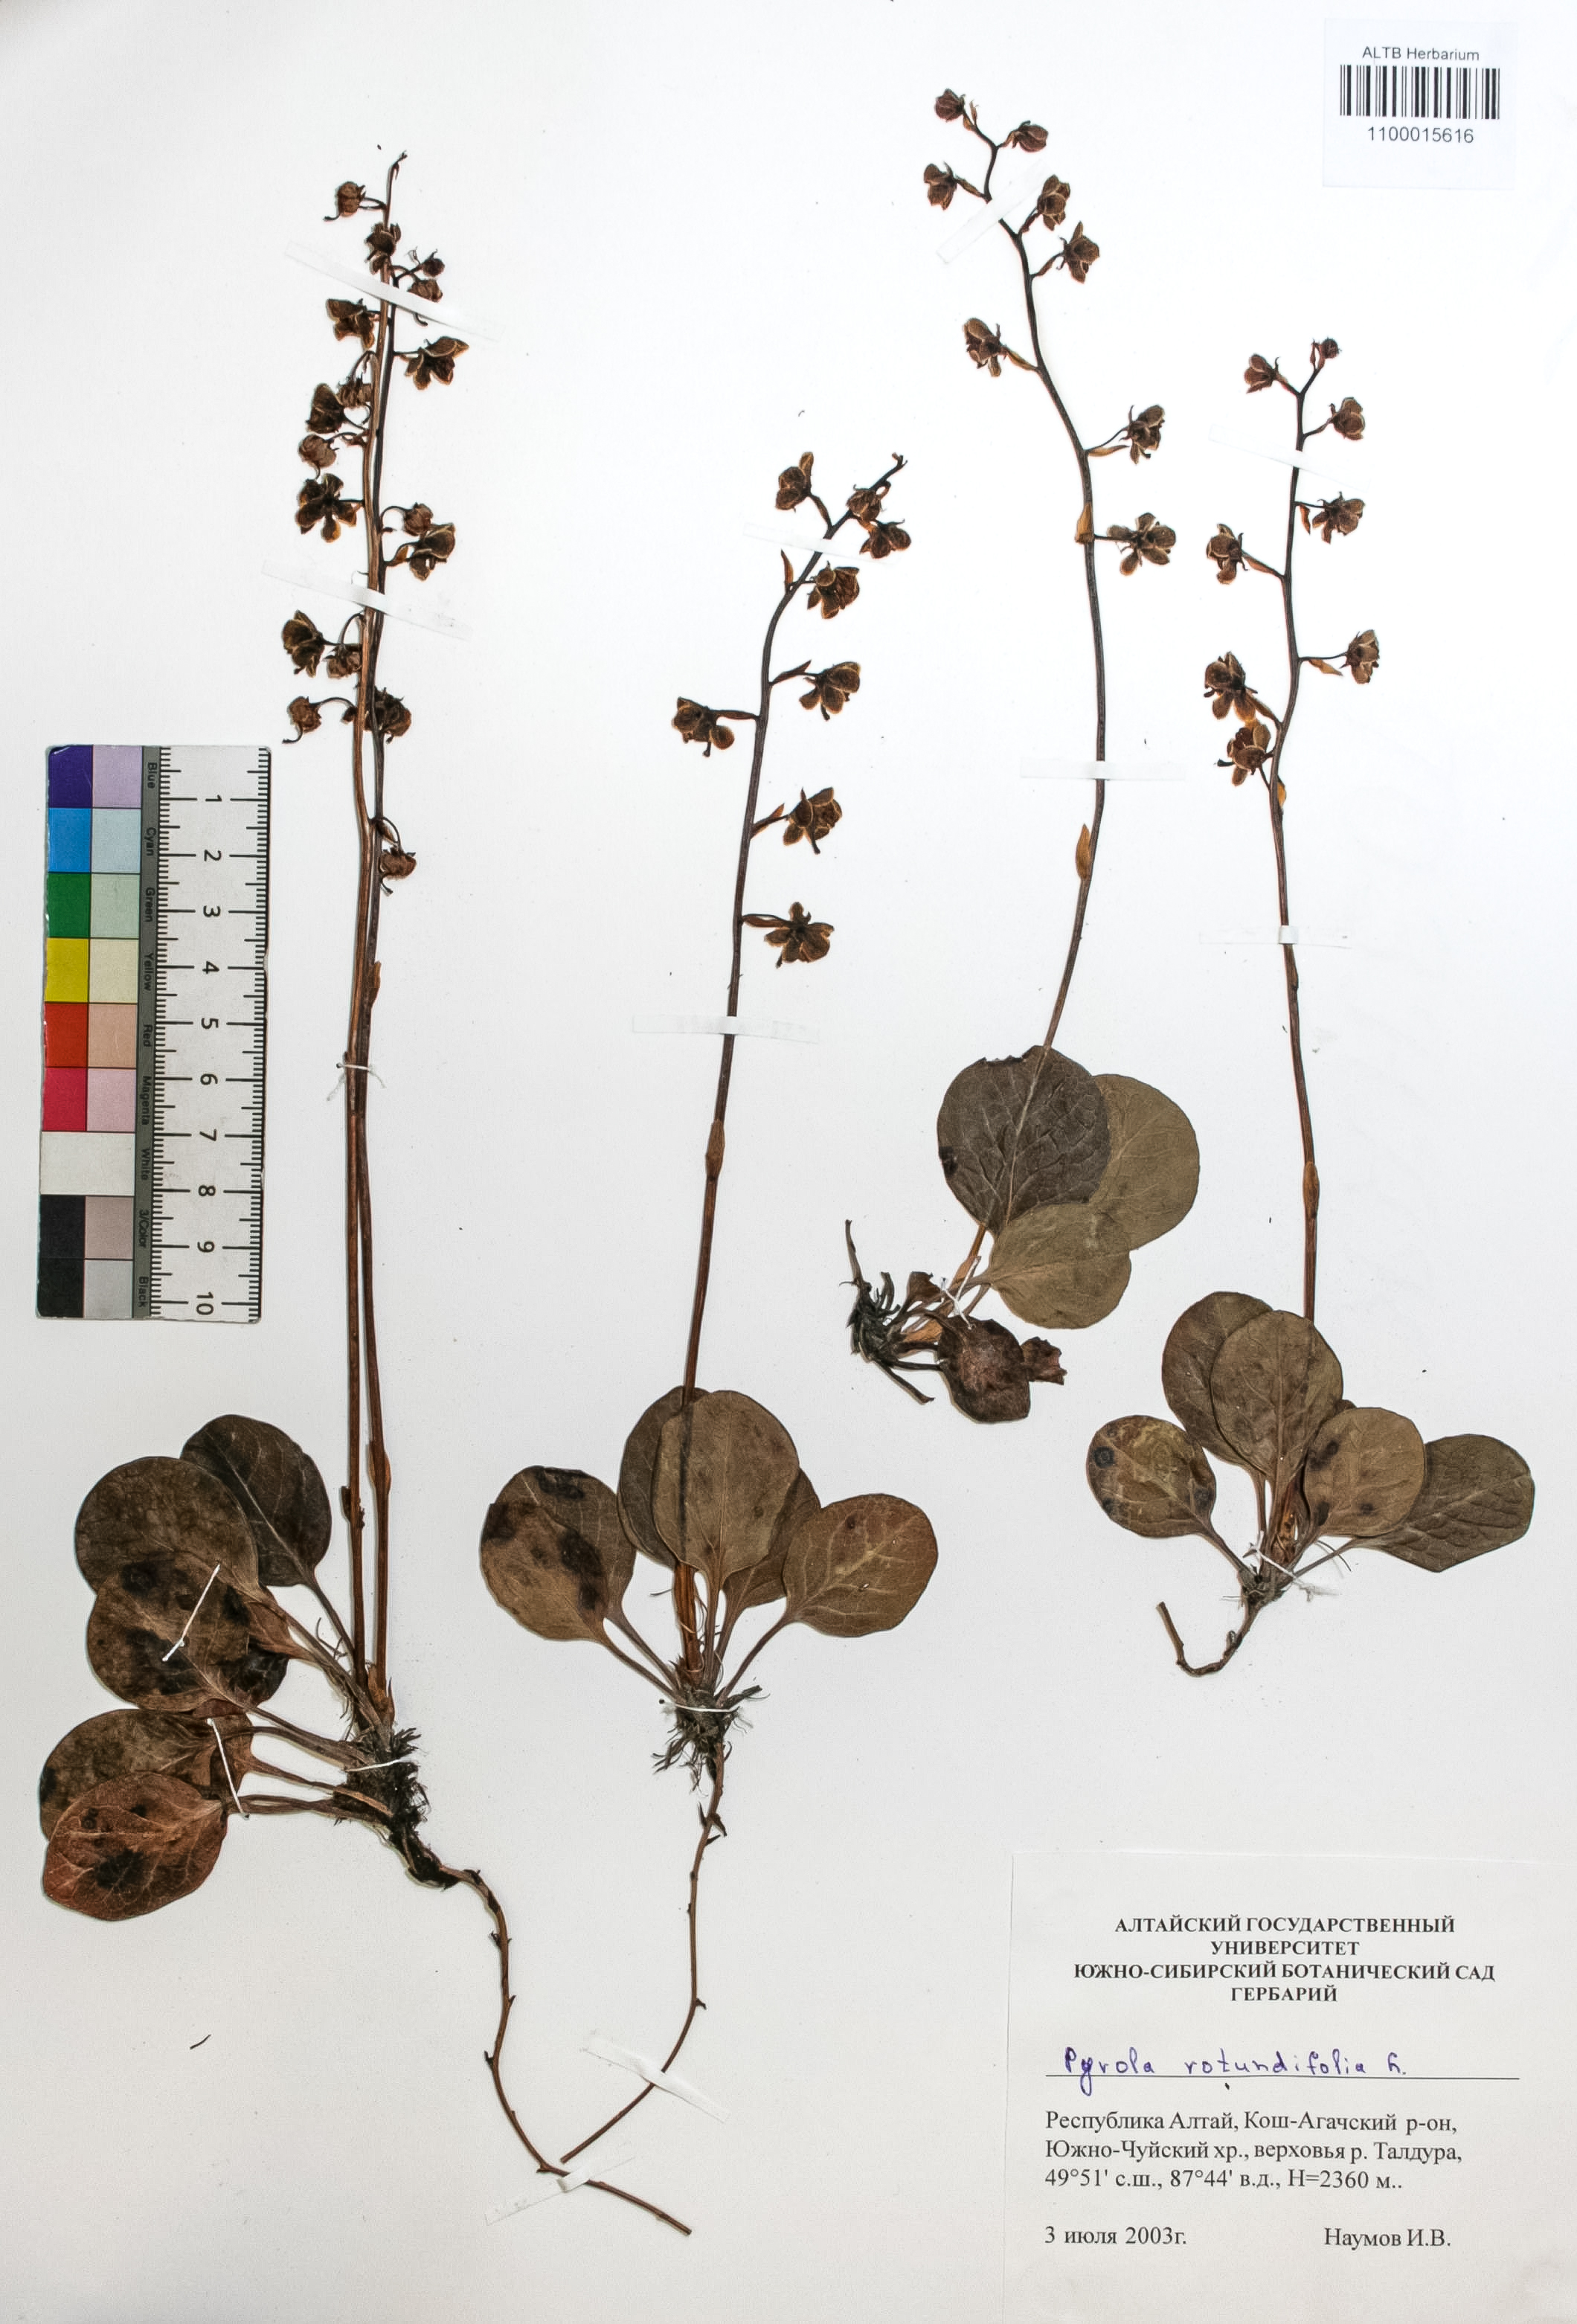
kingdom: Plantae
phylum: Tracheophyta
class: Magnoliopsida
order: Ericales
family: Ericaceae
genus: Pyrola
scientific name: Pyrola rotundifolia
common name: Round-leaved wintergreen
